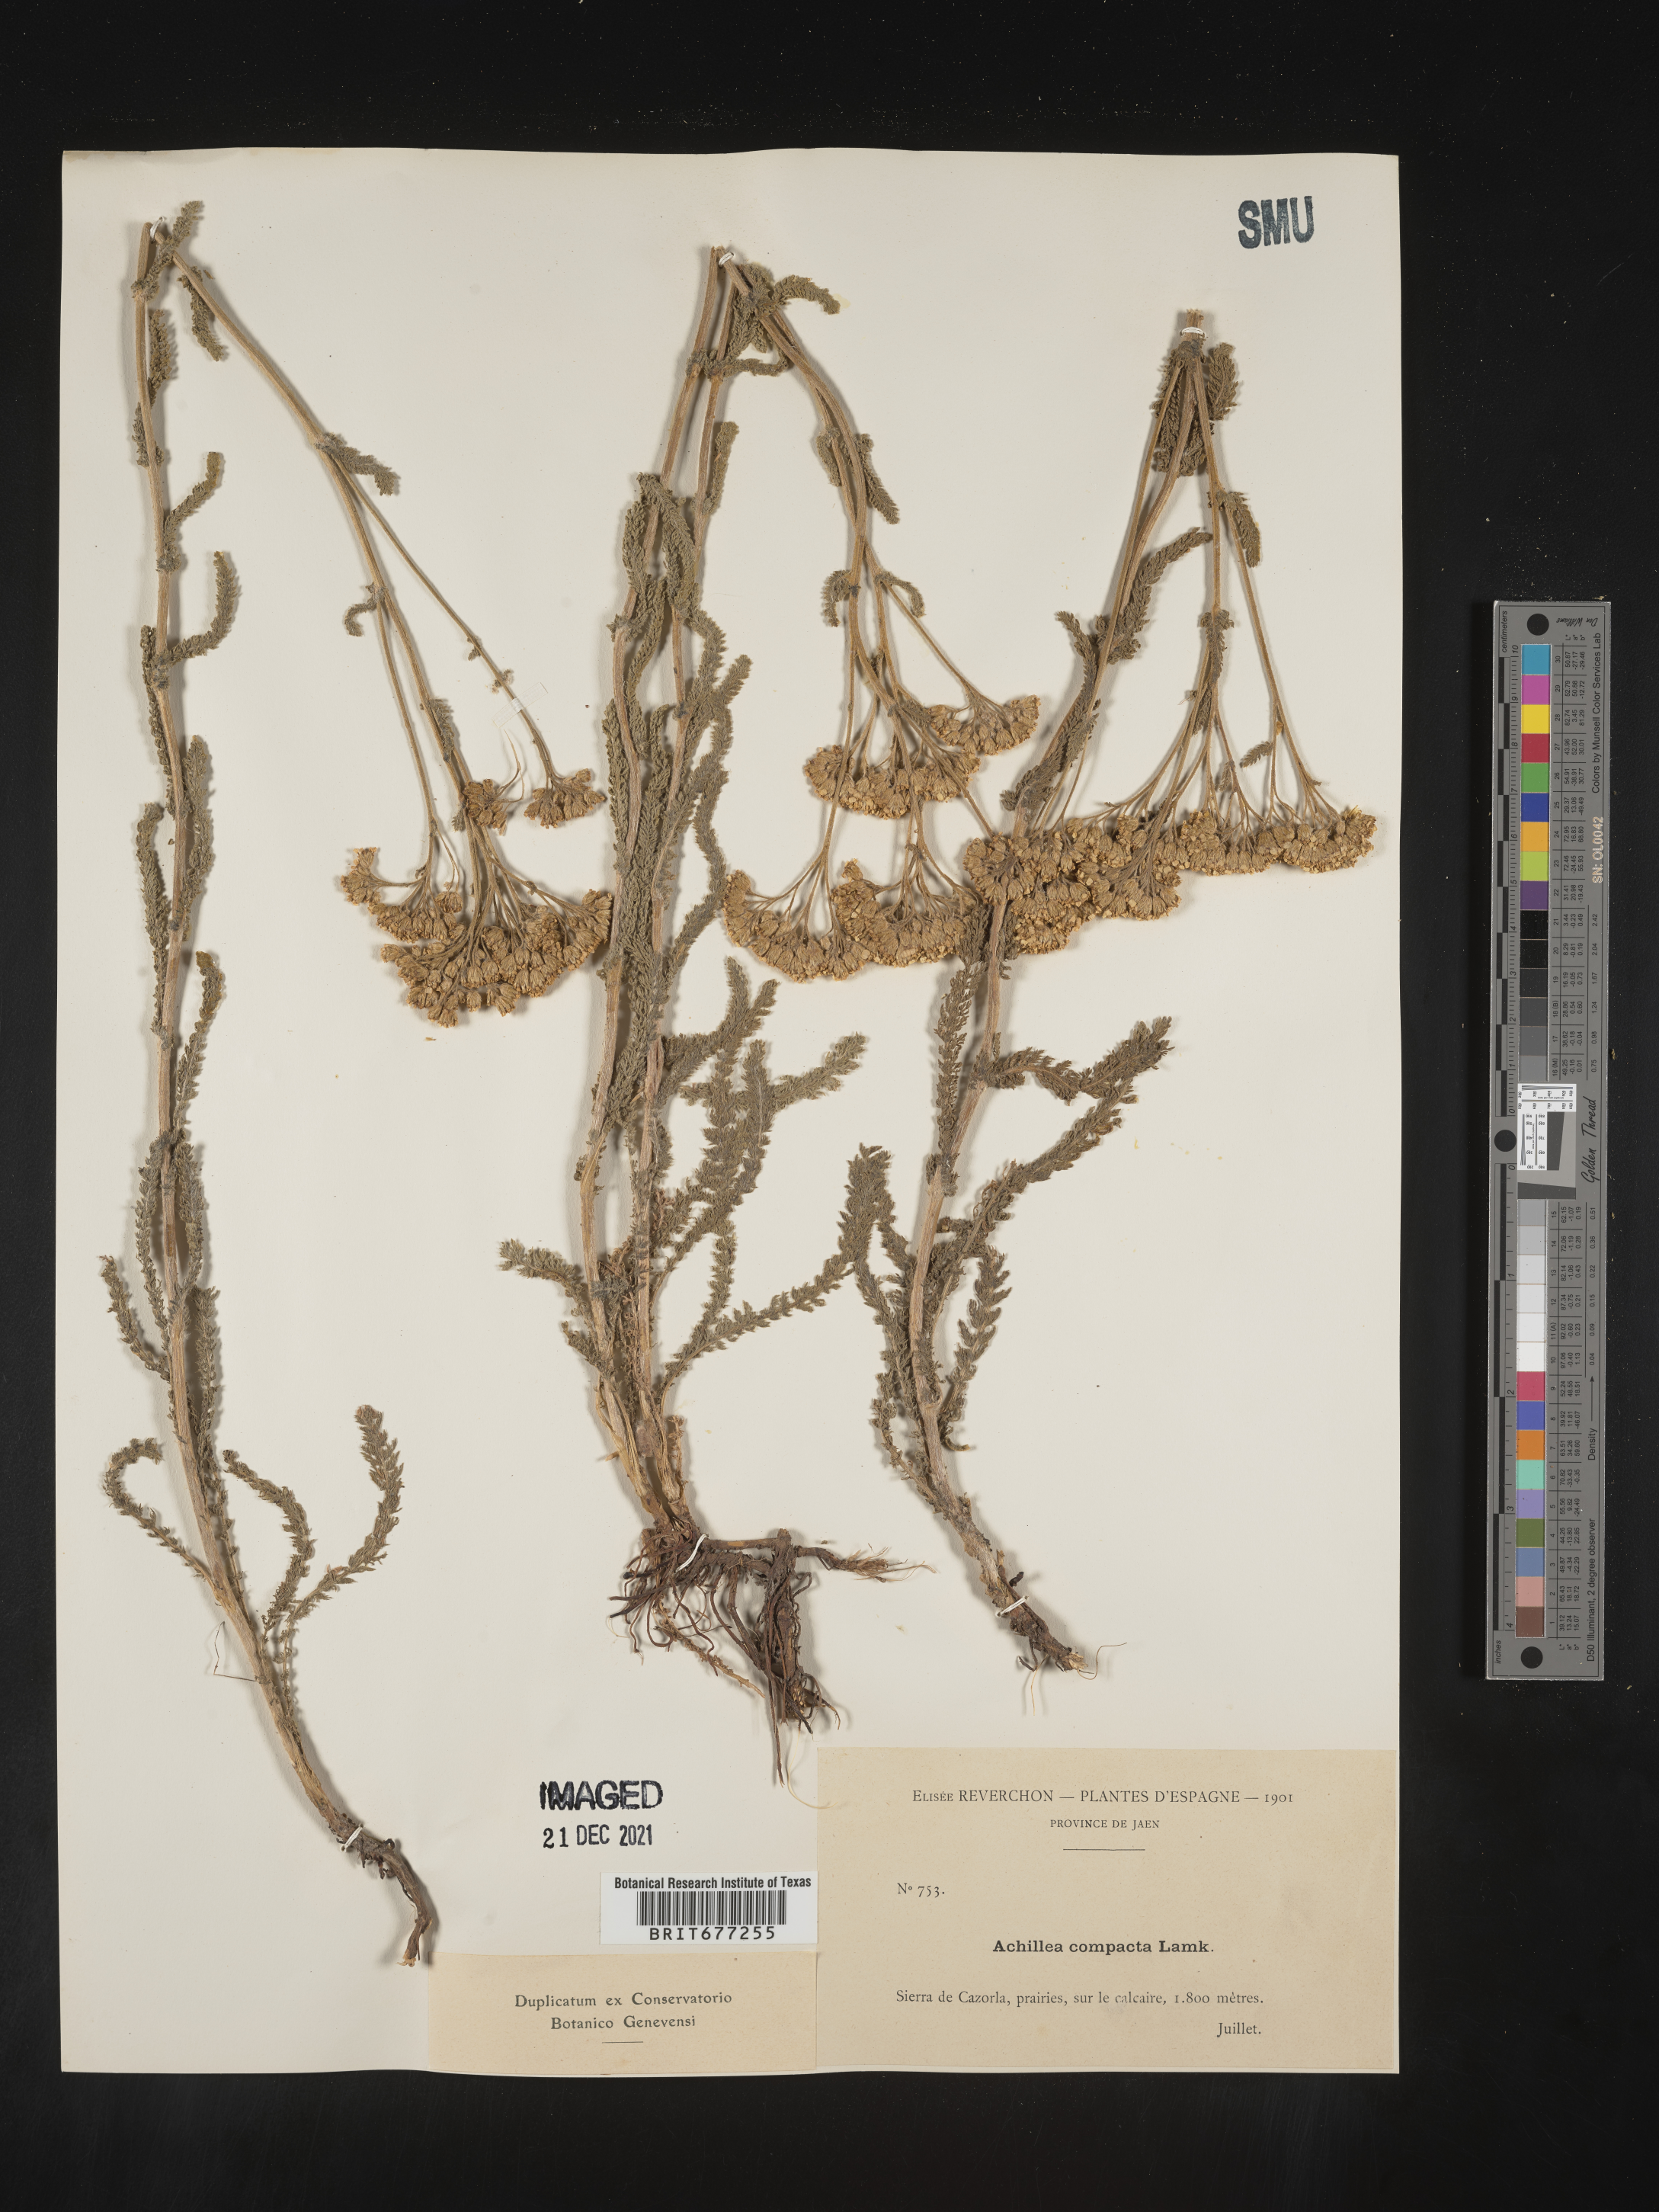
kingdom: Plantae
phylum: Tracheophyta
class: Magnoliopsida
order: Asterales
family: Asteraceae
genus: Achillea
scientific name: Achillea
